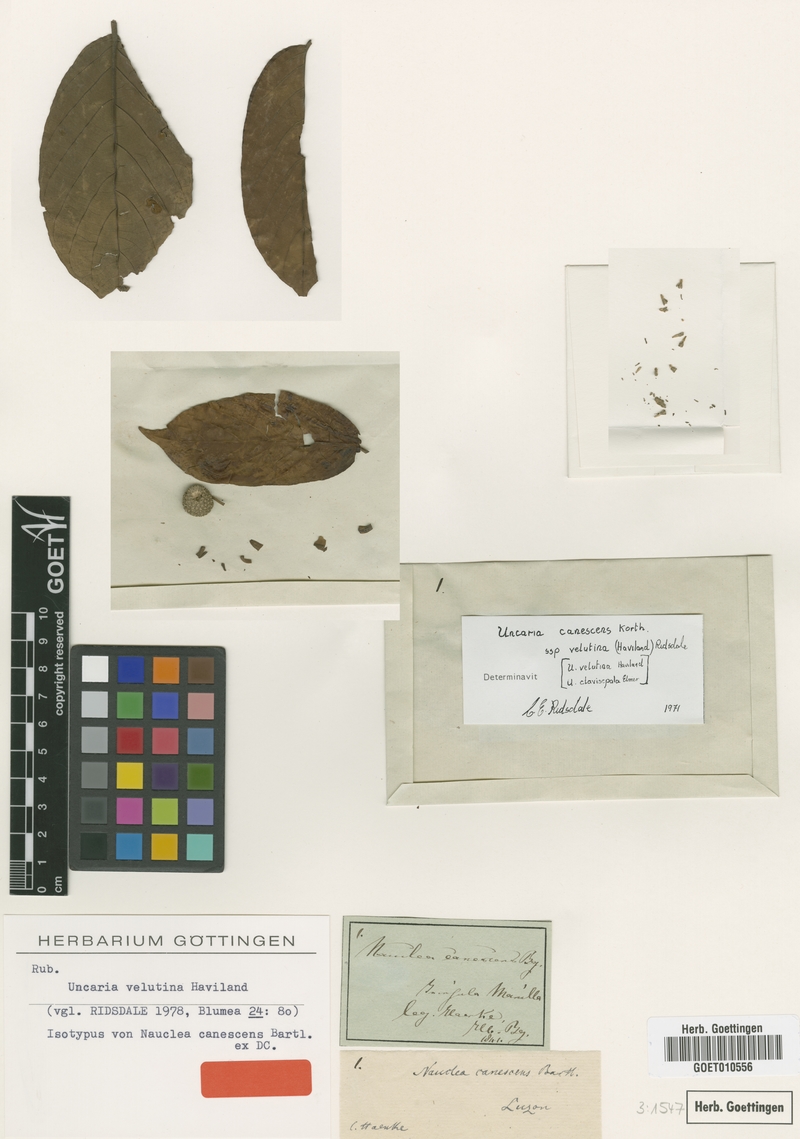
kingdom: Plantae
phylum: Tracheophyta
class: Magnoliopsida
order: Gentianales
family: Rubiaceae
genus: Uncaria
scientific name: Uncaria velutina
